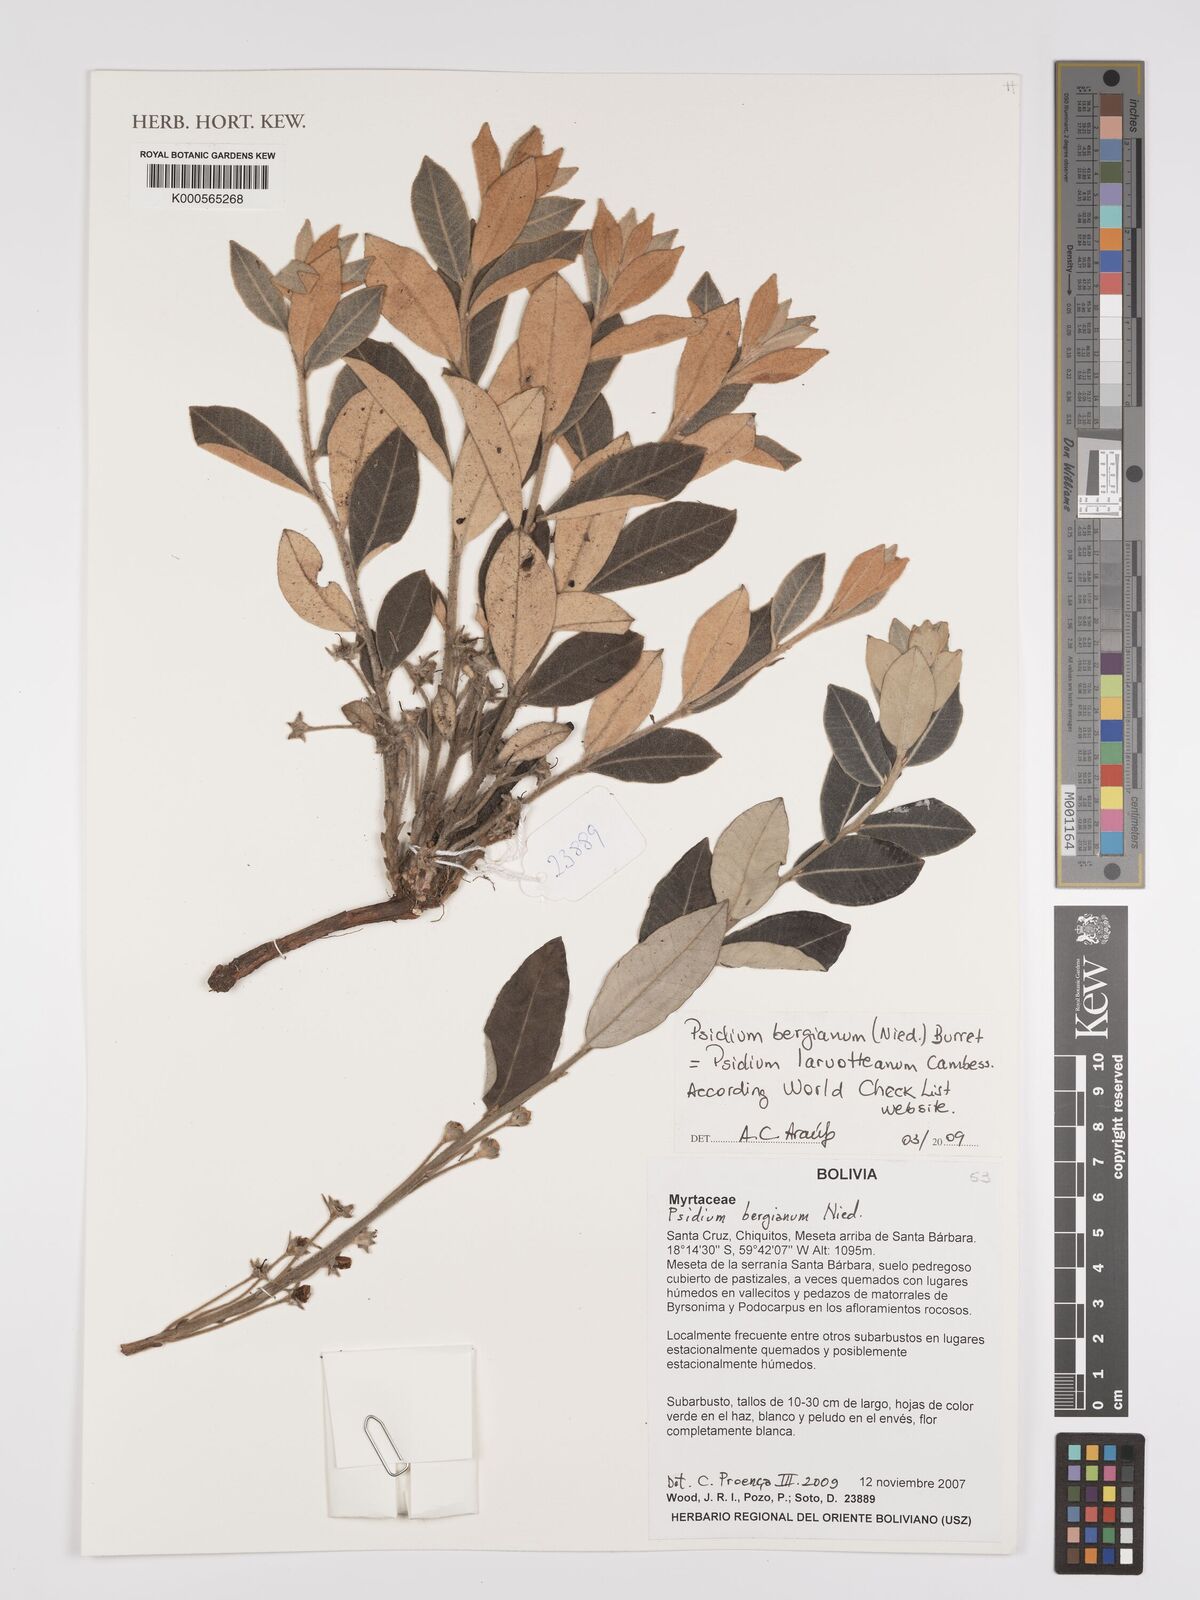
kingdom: Plantae
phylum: Tracheophyta
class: Magnoliopsida
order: Myrtales
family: Myrtaceae
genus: Psidium
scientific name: Psidium larueotteanum
